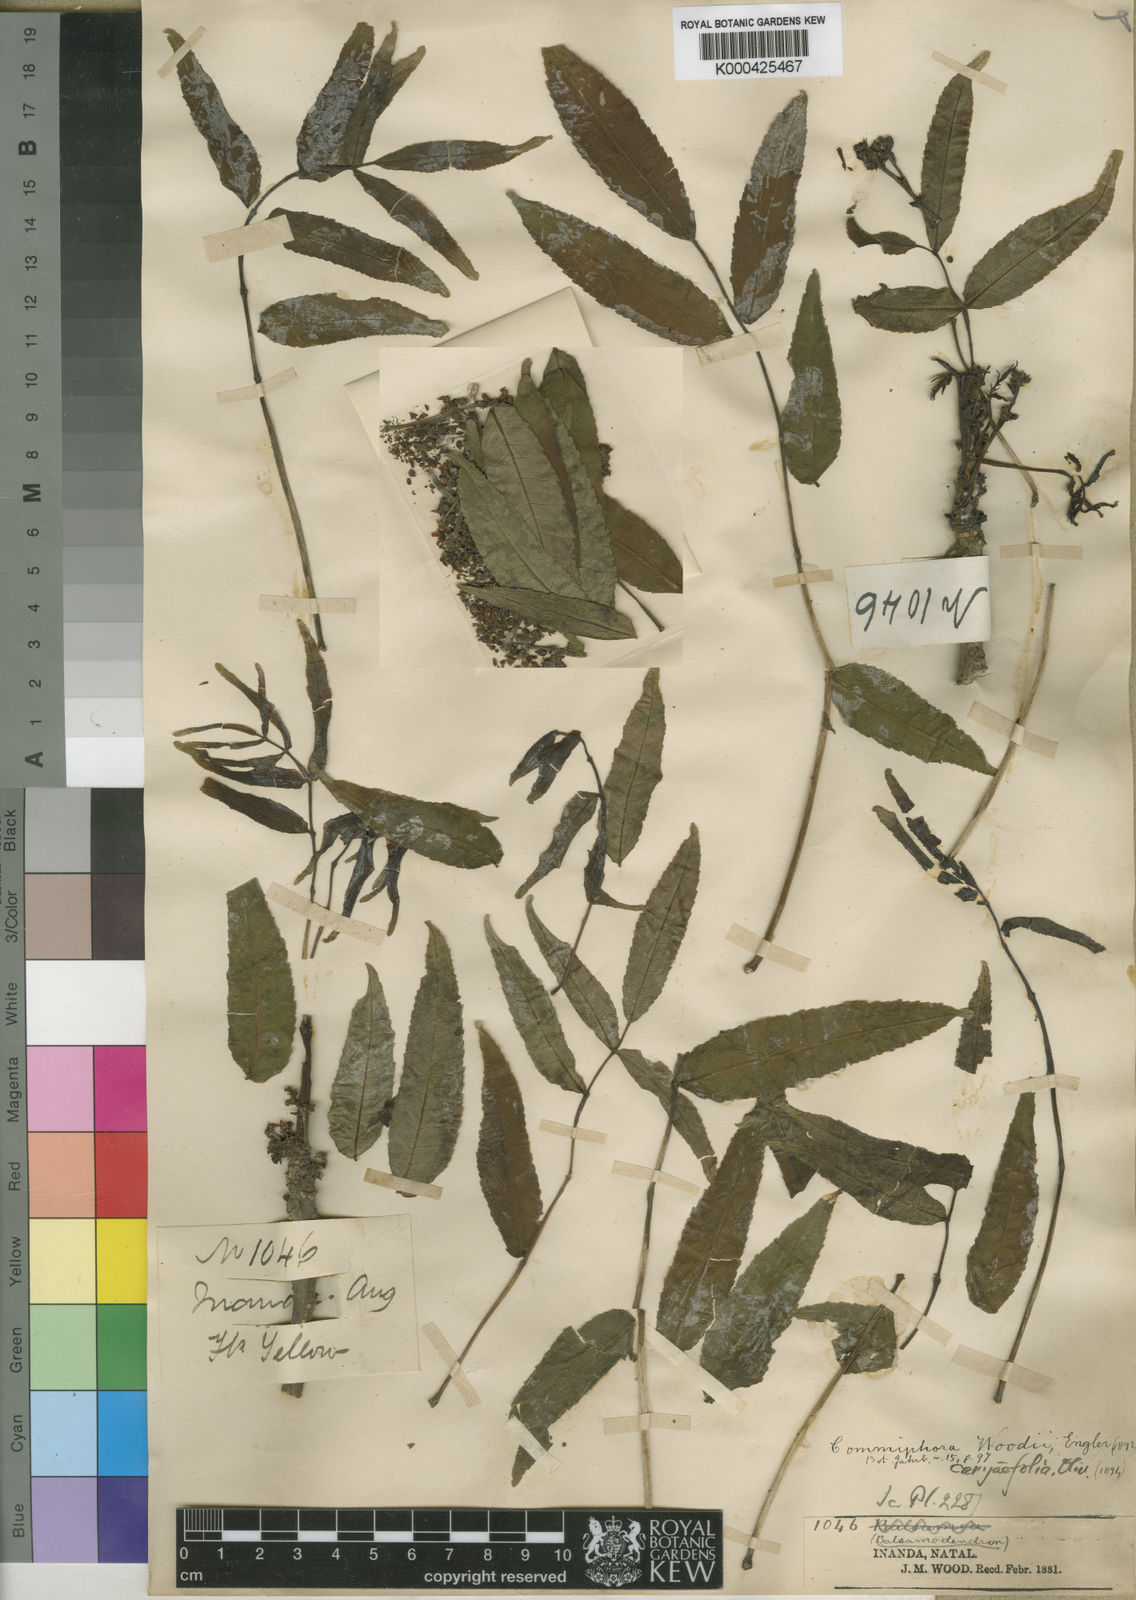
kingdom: Plantae
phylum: Tracheophyta
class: Magnoliopsida
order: Sapindales
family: Burseraceae
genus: Commiphora
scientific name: Commiphora woodii
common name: Forest corkwood
